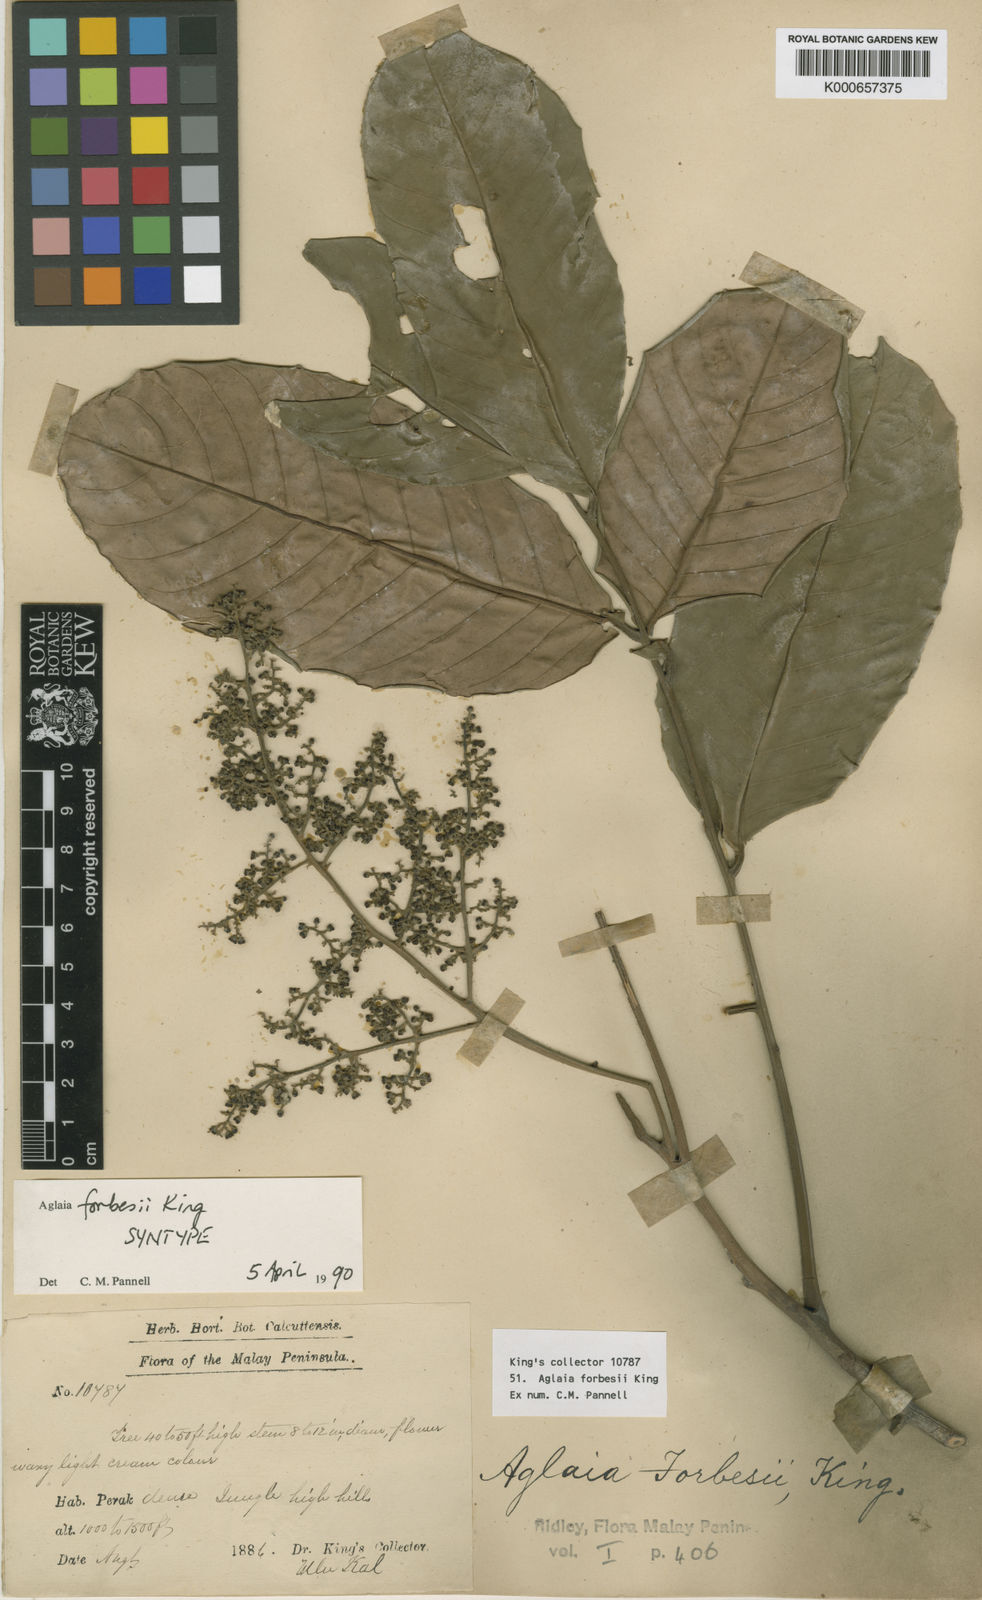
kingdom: Plantae
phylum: Tracheophyta
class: Magnoliopsida
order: Sapindales
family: Meliaceae
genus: Aglaia
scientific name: Aglaia forbesii
